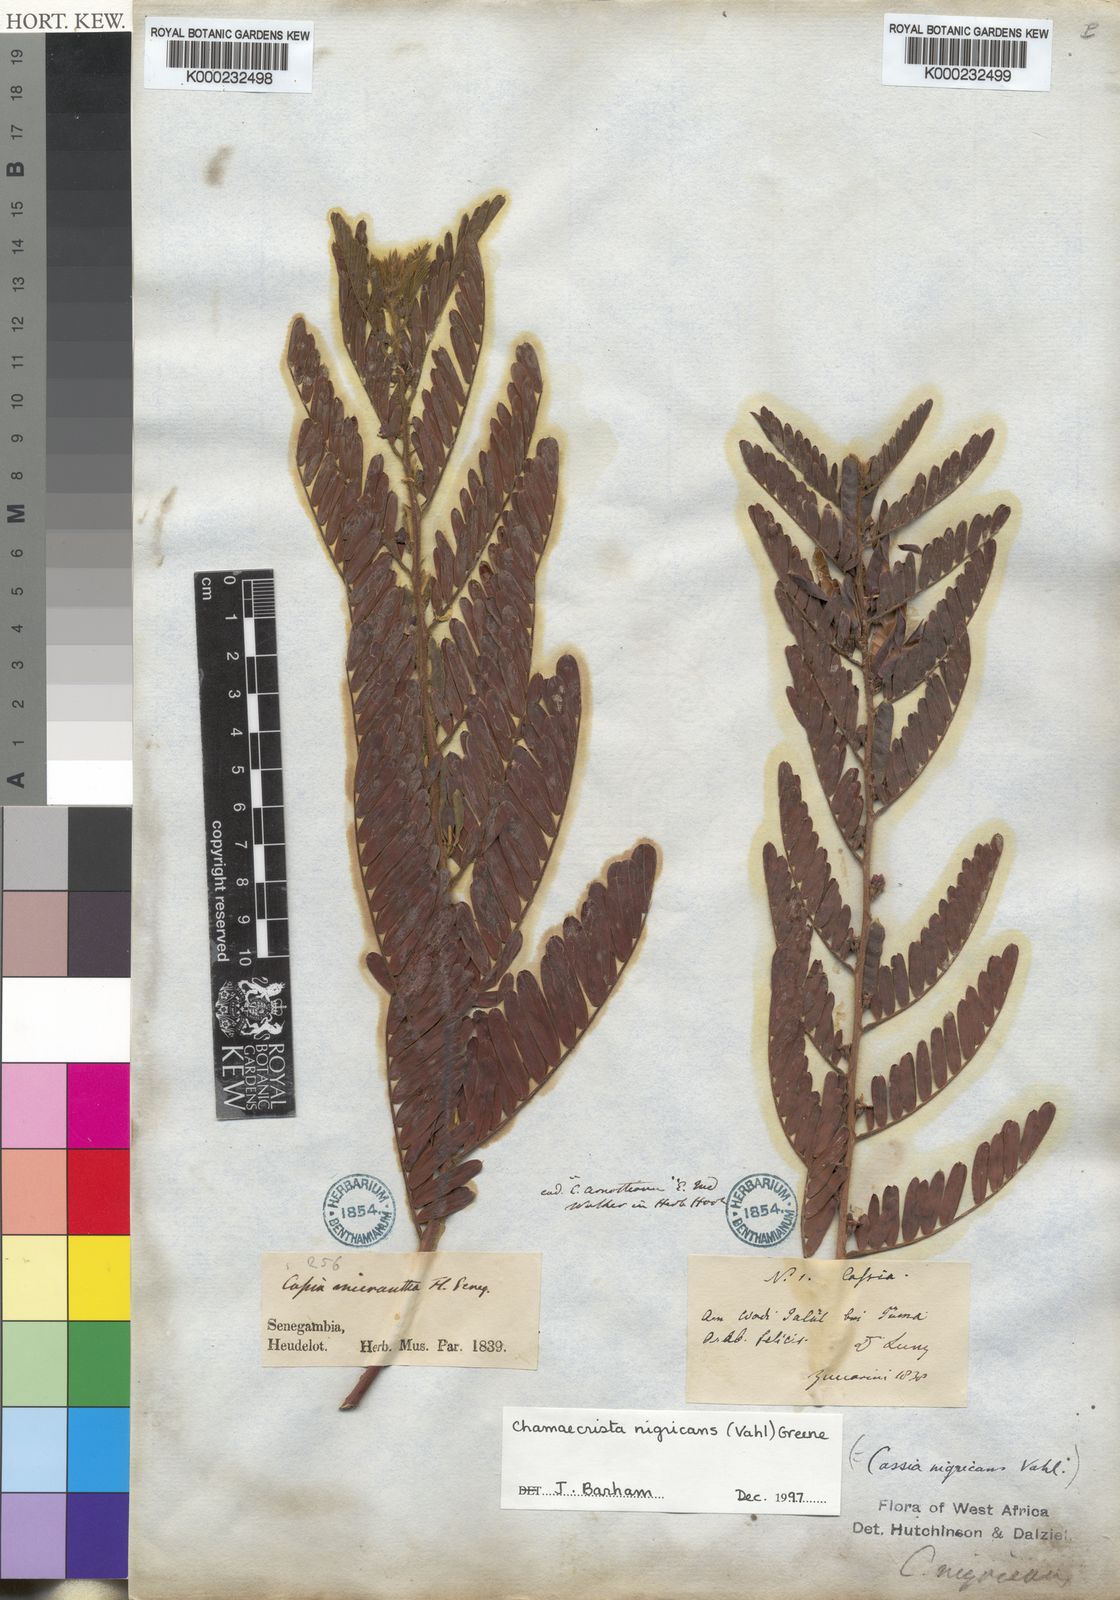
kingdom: Plantae
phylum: Tracheophyta
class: Magnoliopsida
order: Fabales
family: Fabaceae
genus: Chamaecrista
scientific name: Chamaecrista nigricans
